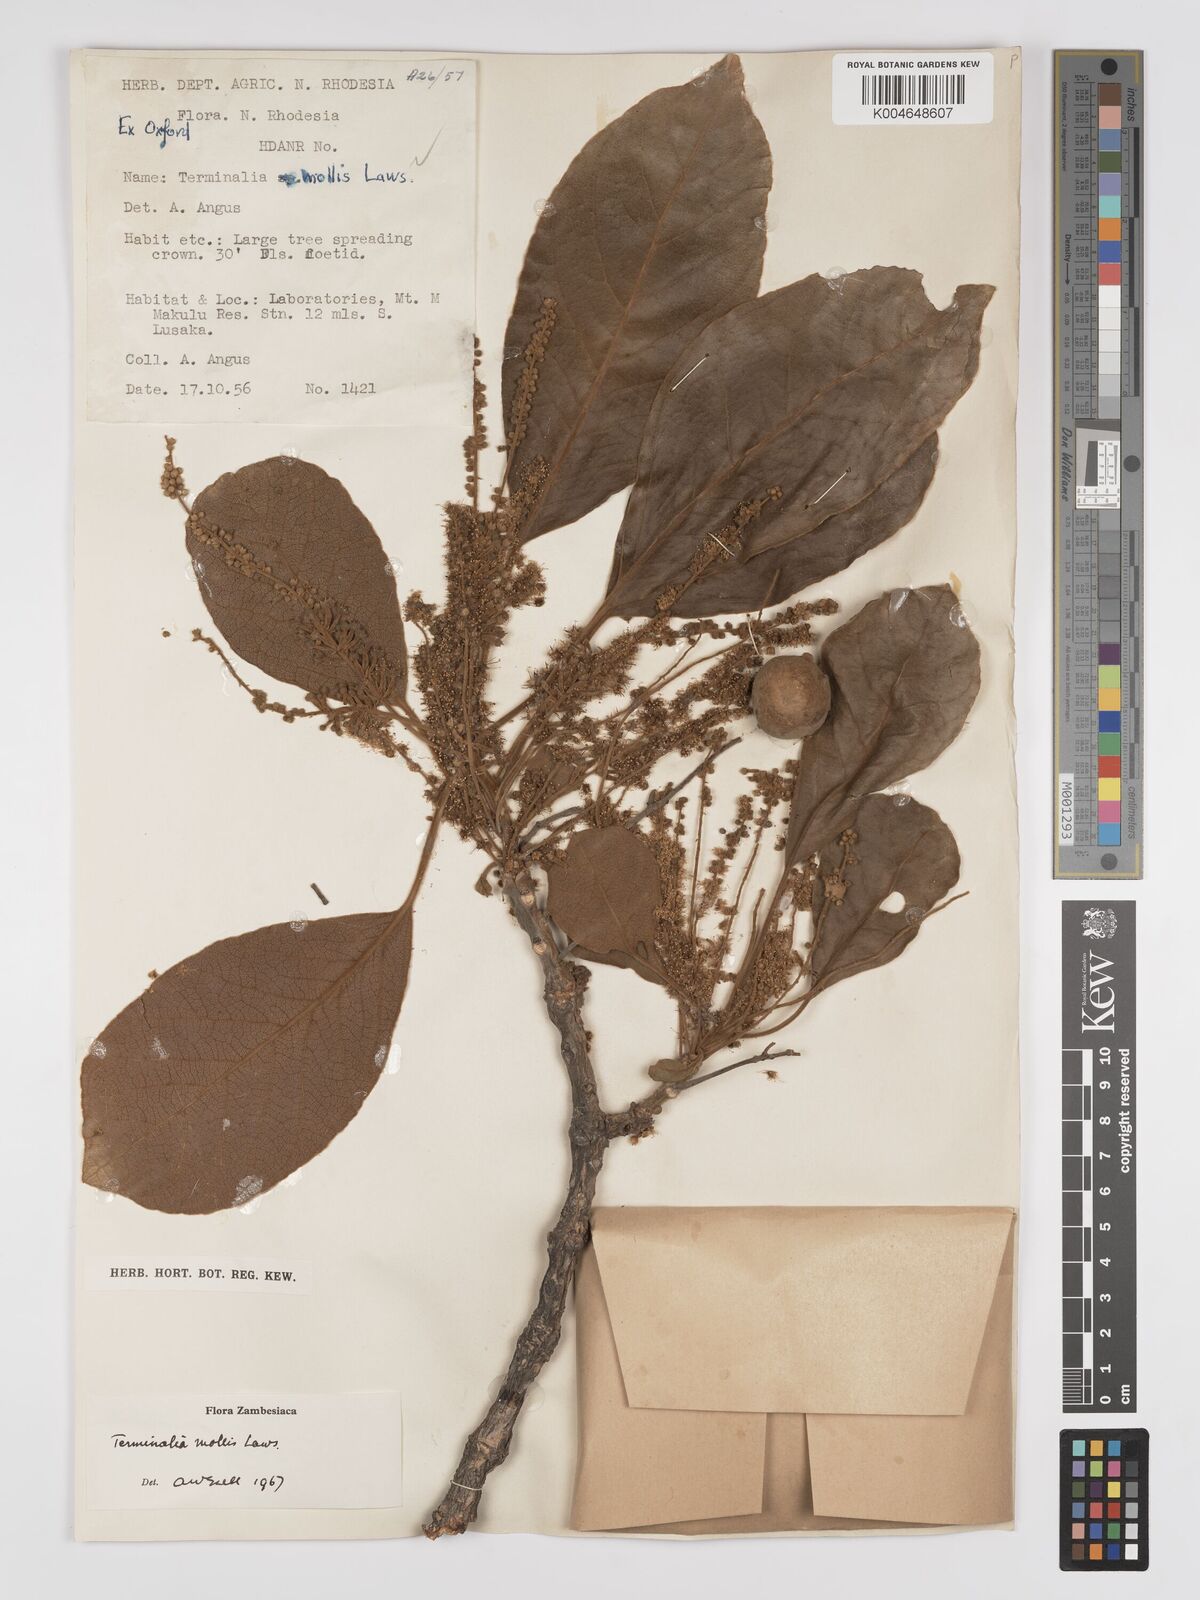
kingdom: Plantae
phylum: Tracheophyta
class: Magnoliopsida
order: Myrtales
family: Combretaceae
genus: Terminalia
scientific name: Terminalia
